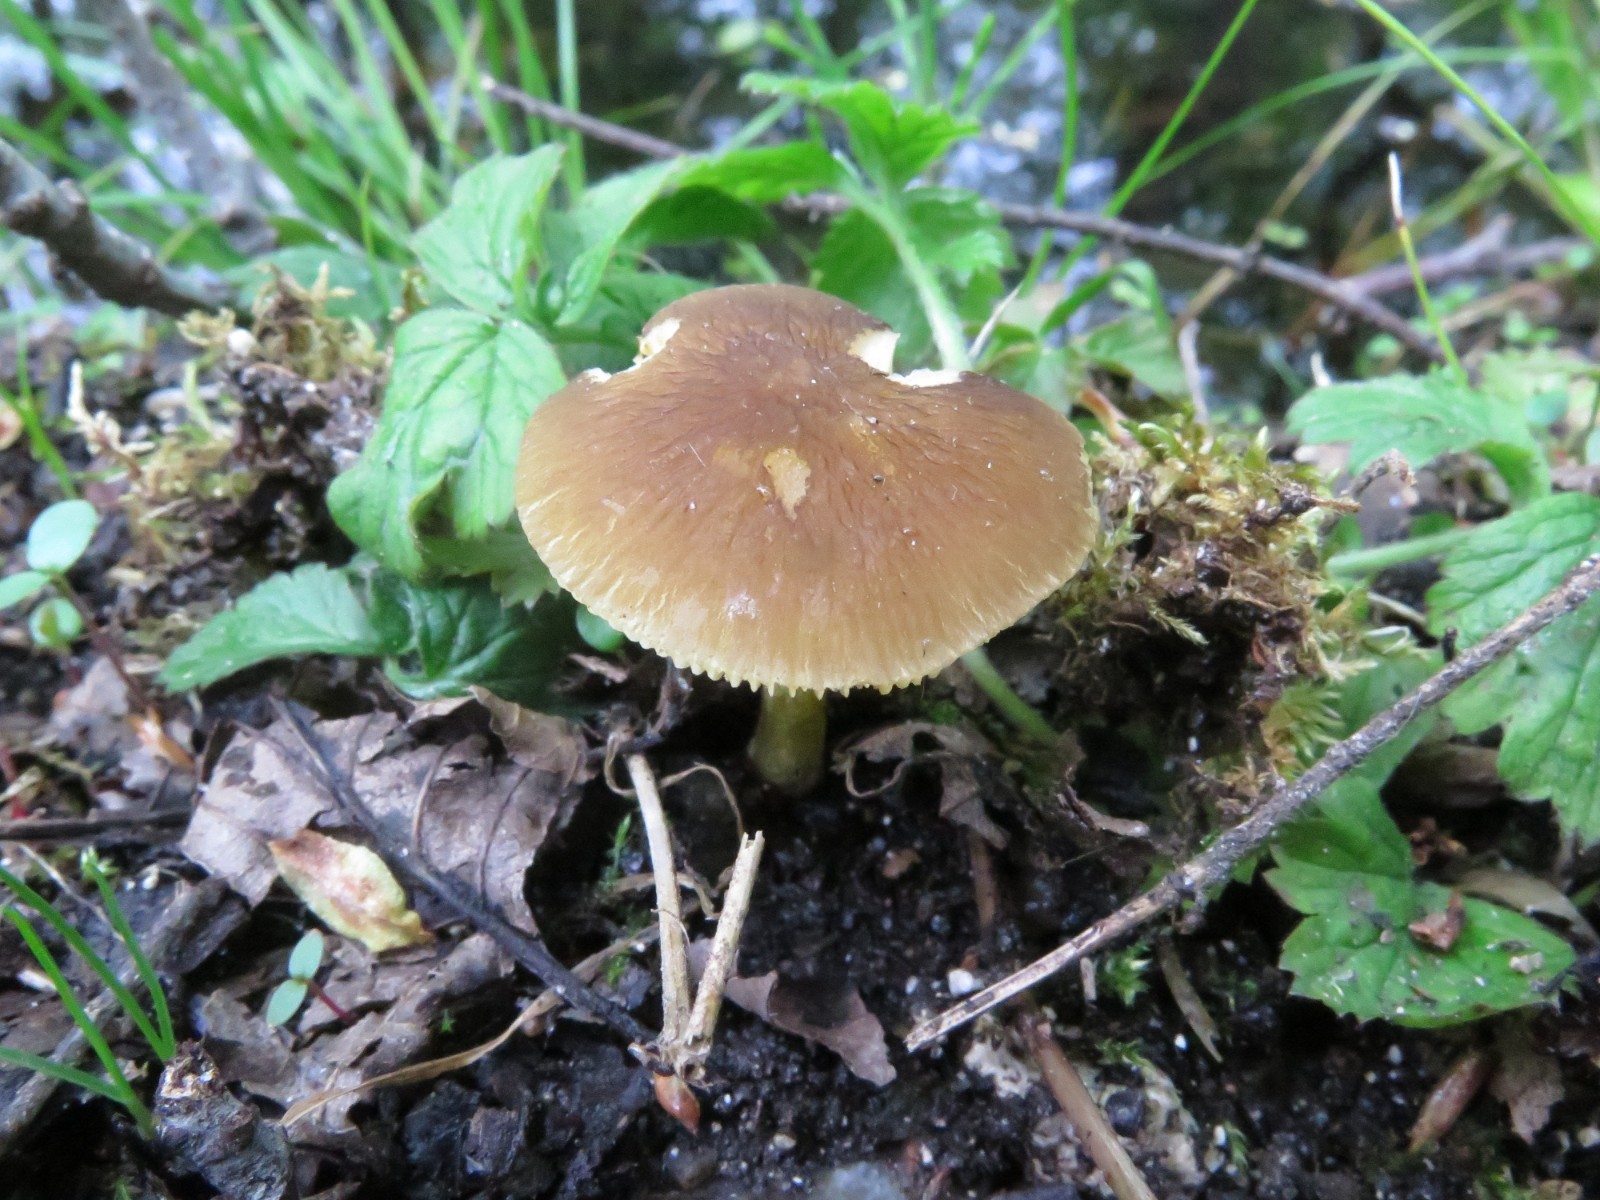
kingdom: Fungi
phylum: Basidiomycota
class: Agaricomycetes
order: Agaricales
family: Pluteaceae
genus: Pluteus
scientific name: Pluteus romellii
